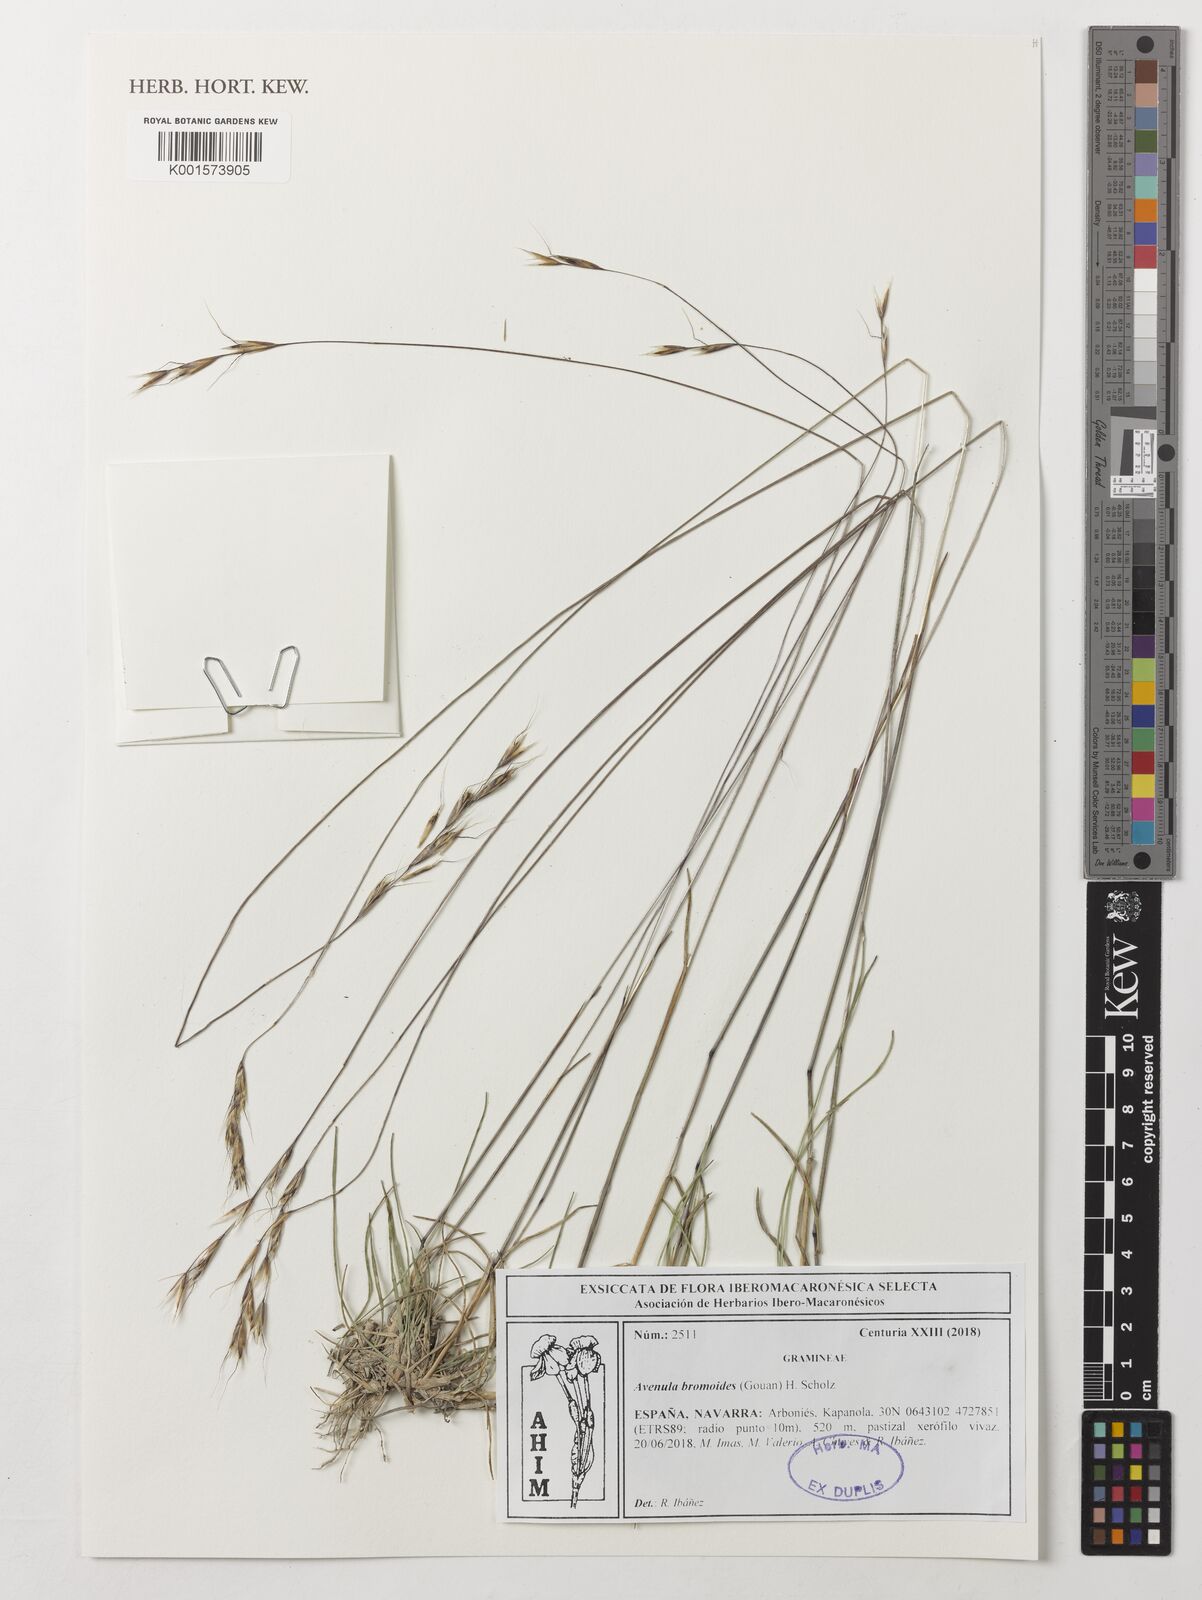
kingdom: Plantae
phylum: Tracheophyta
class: Liliopsida
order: Poales
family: Poaceae
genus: Helictochloa
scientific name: Helictochloa bromoides
